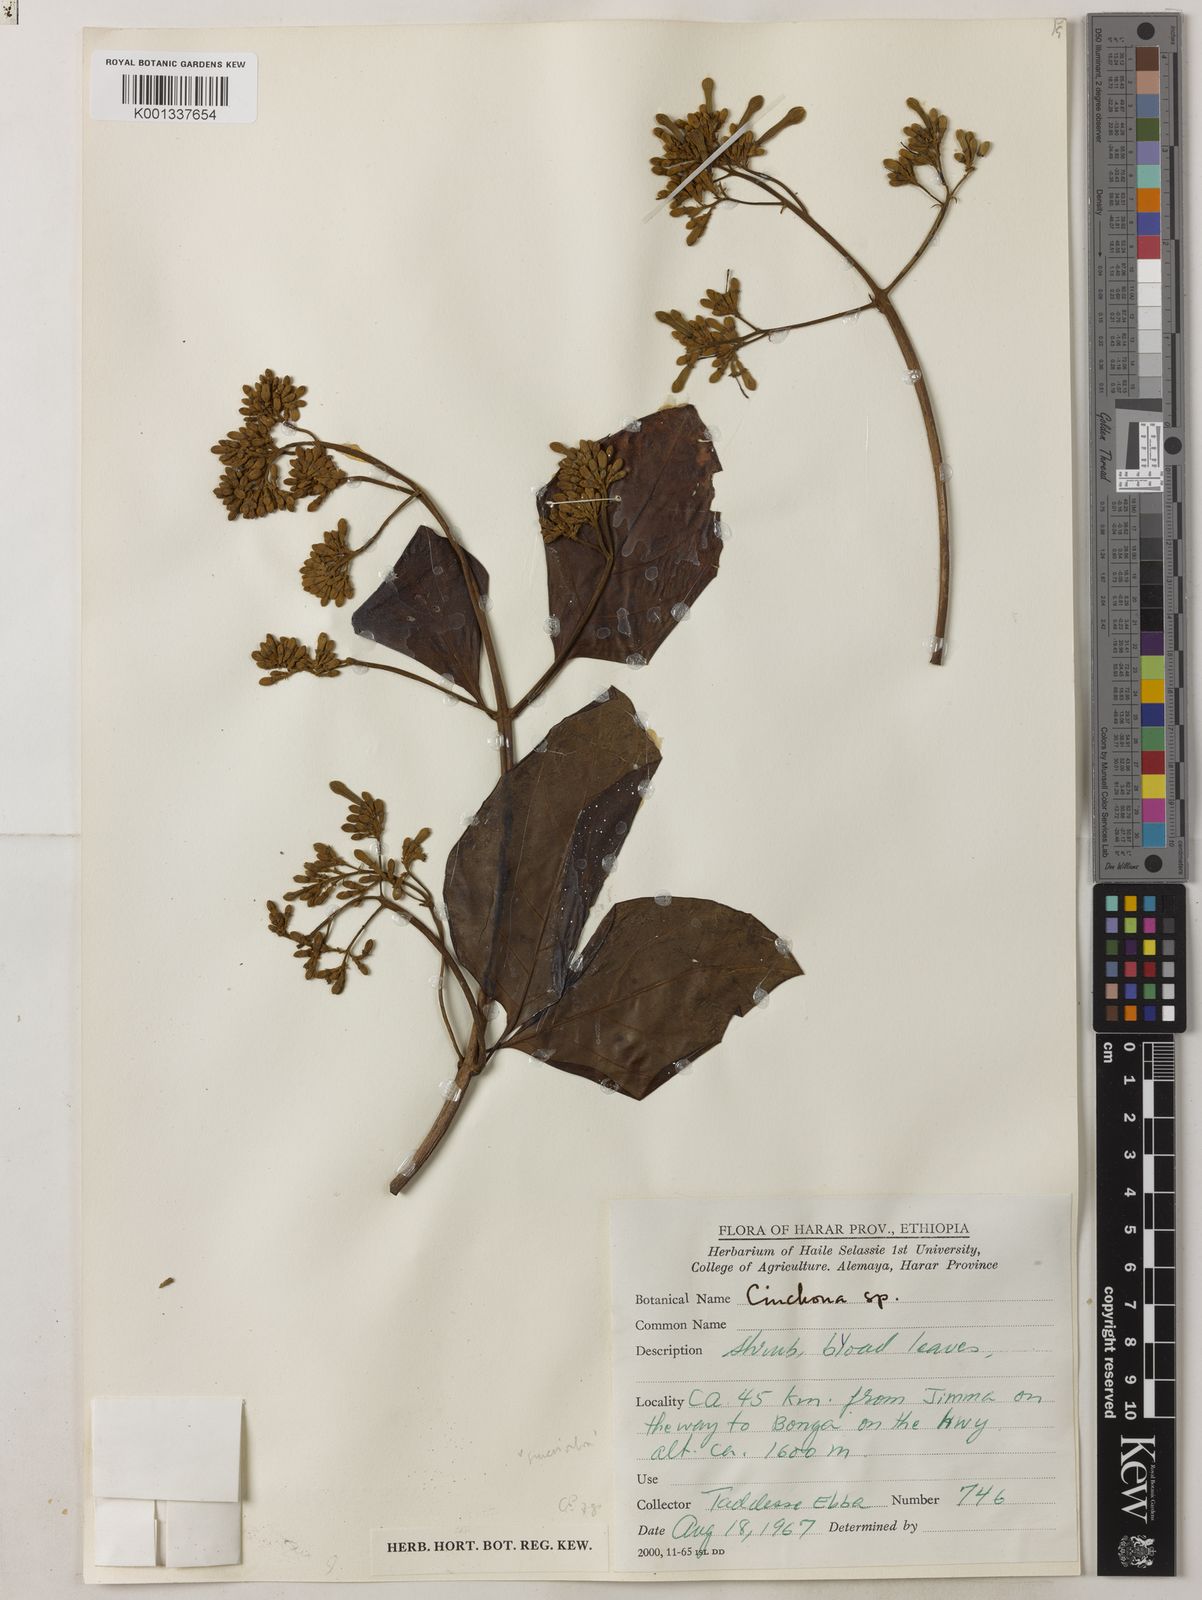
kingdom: Plantae
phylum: Tracheophyta
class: Magnoliopsida
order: Gentianales
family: Rubiaceae
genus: Cinchona
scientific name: Cinchona pubescens
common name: Quinine
